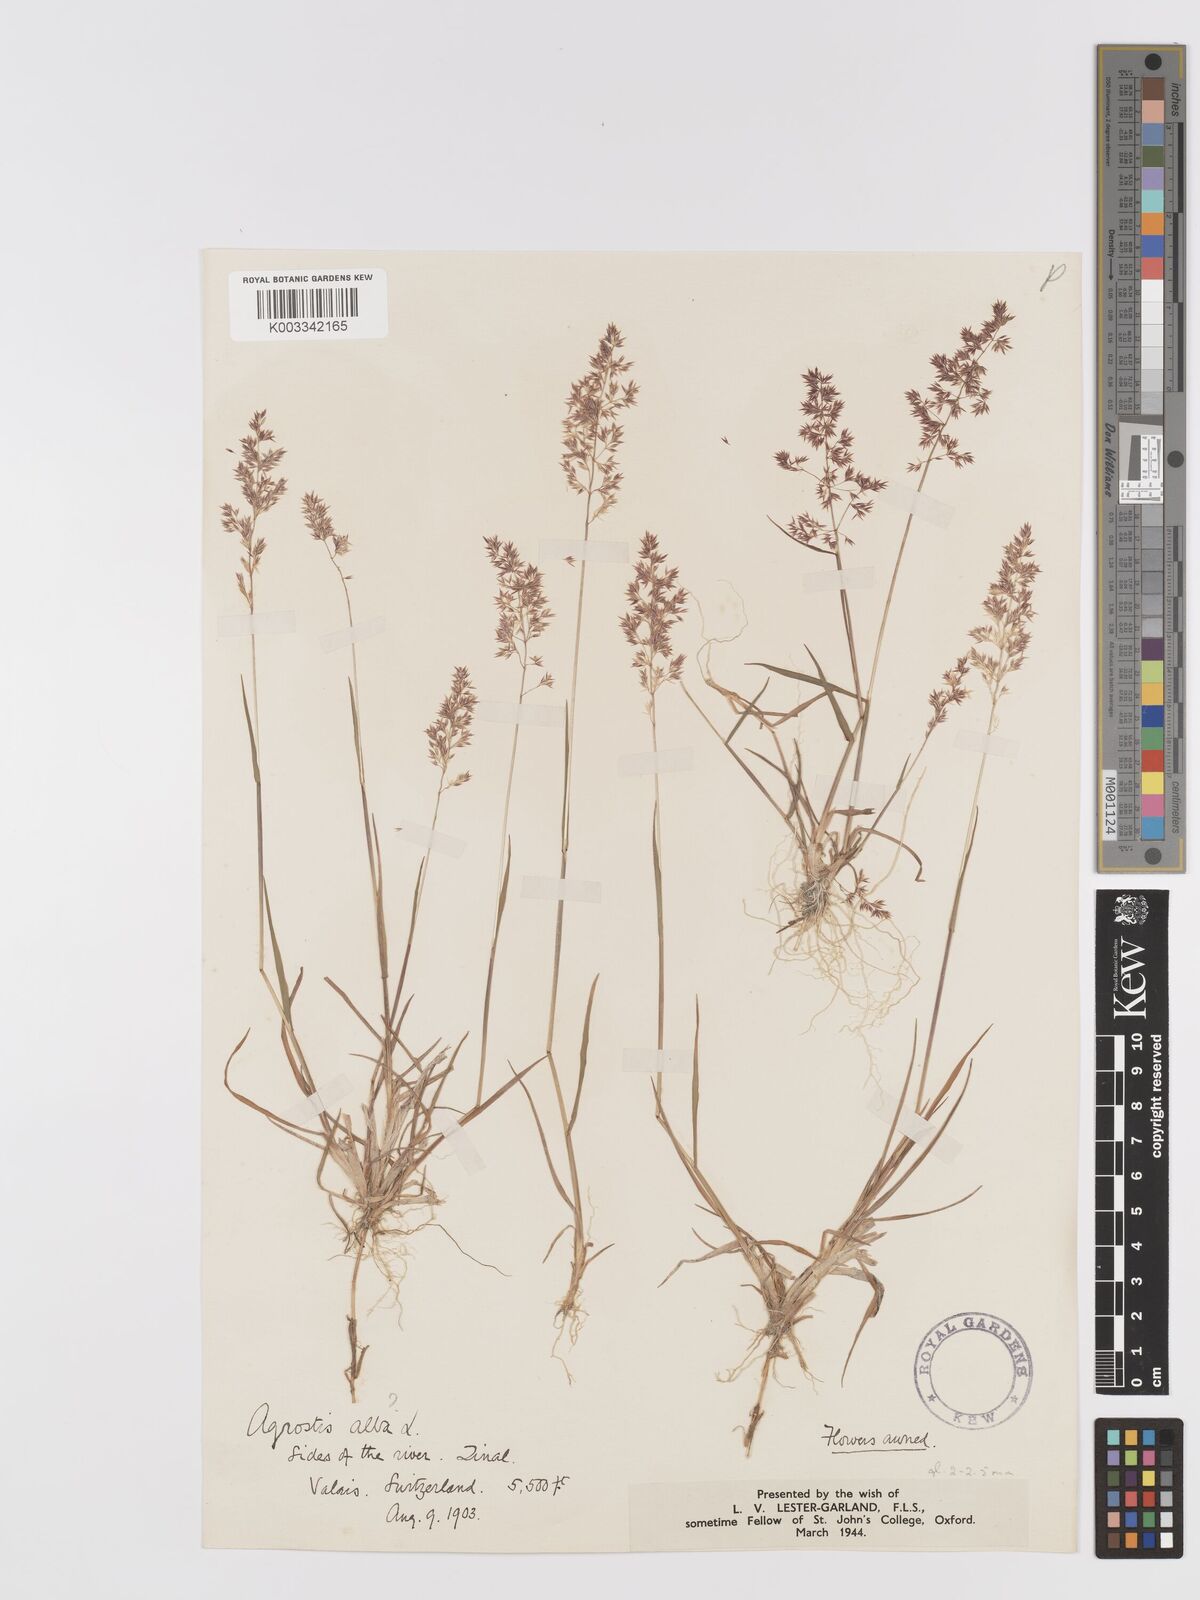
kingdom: Plantae
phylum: Tracheophyta
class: Liliopsida
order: Poales
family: Poaceae
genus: Agrostis
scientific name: Agrostis stolonifera
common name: Creeping bentgrass
